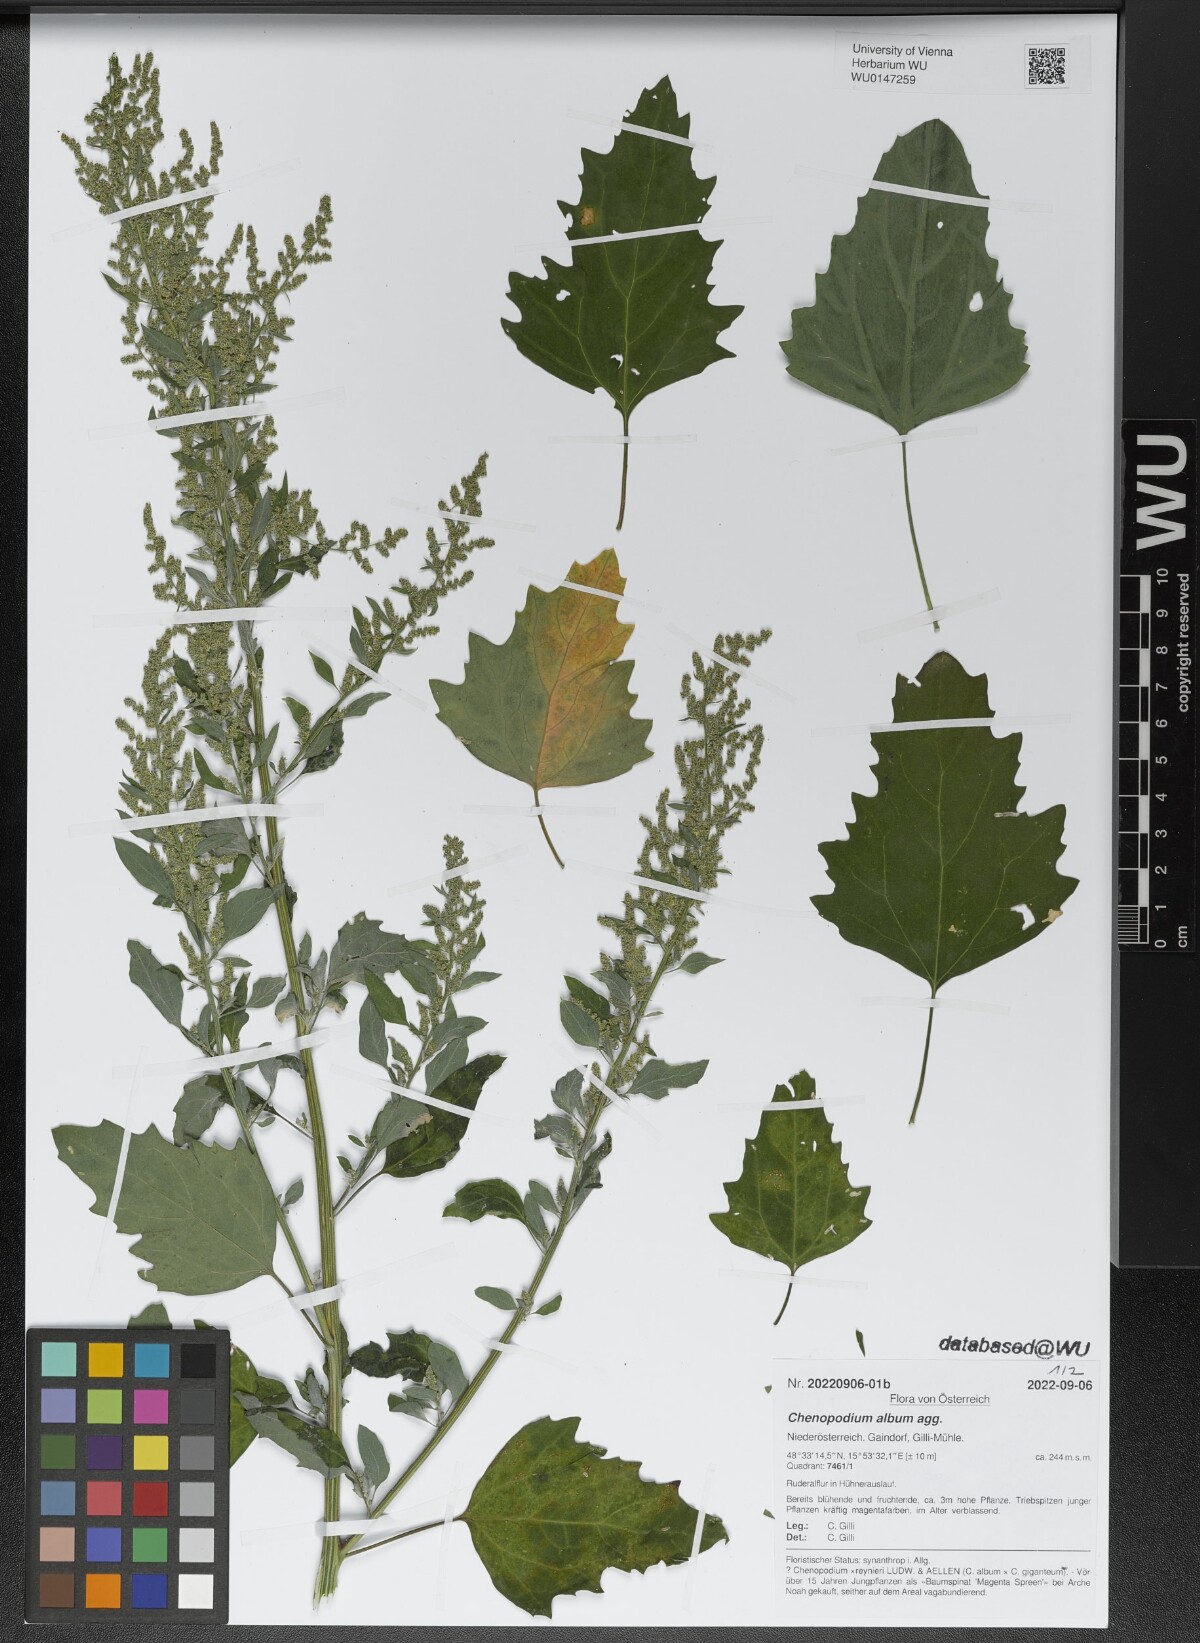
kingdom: Plantae
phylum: Tracheophyta
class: Magnoliopsida
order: Caryophyllales
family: Amaranthaceae
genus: Chenopodium
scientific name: Chenopodium album
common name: Fat-hen
